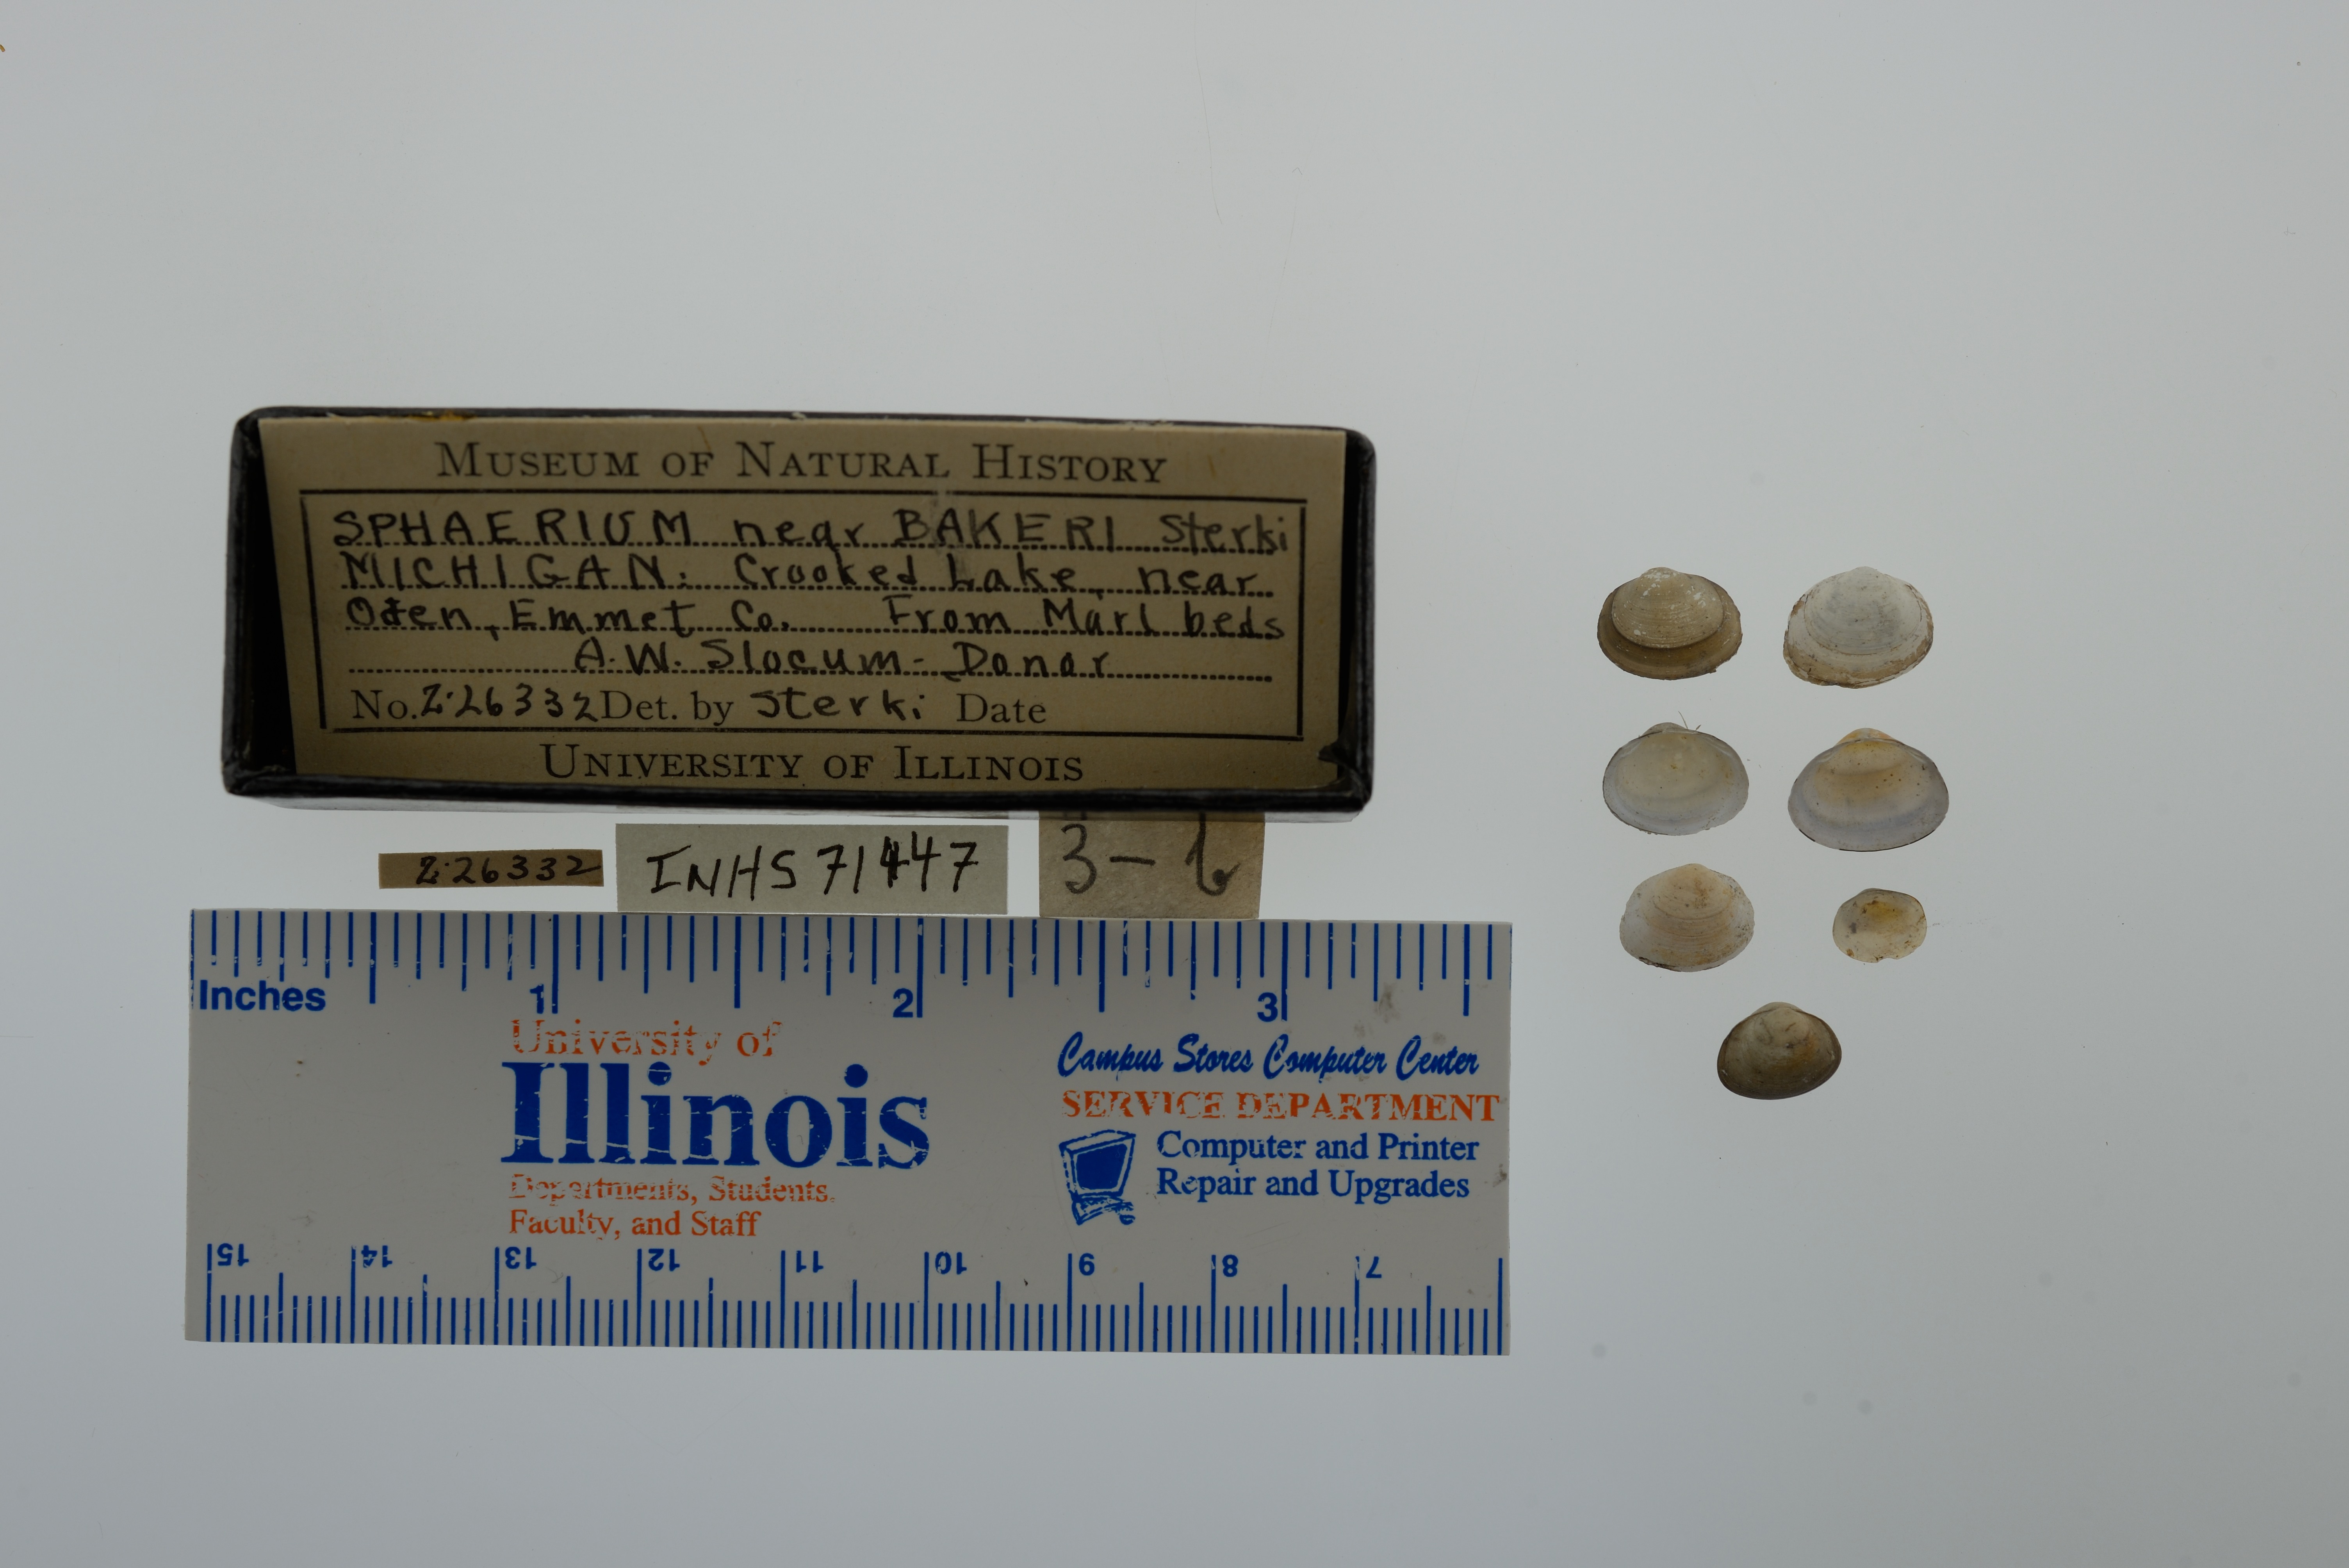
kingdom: Animalia
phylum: Mollusca
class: Bivalvia
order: Sphaeriida
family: Sphaeriidae
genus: Sphaerium
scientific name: Sphaerium striatinum
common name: Striated fingernailclam
